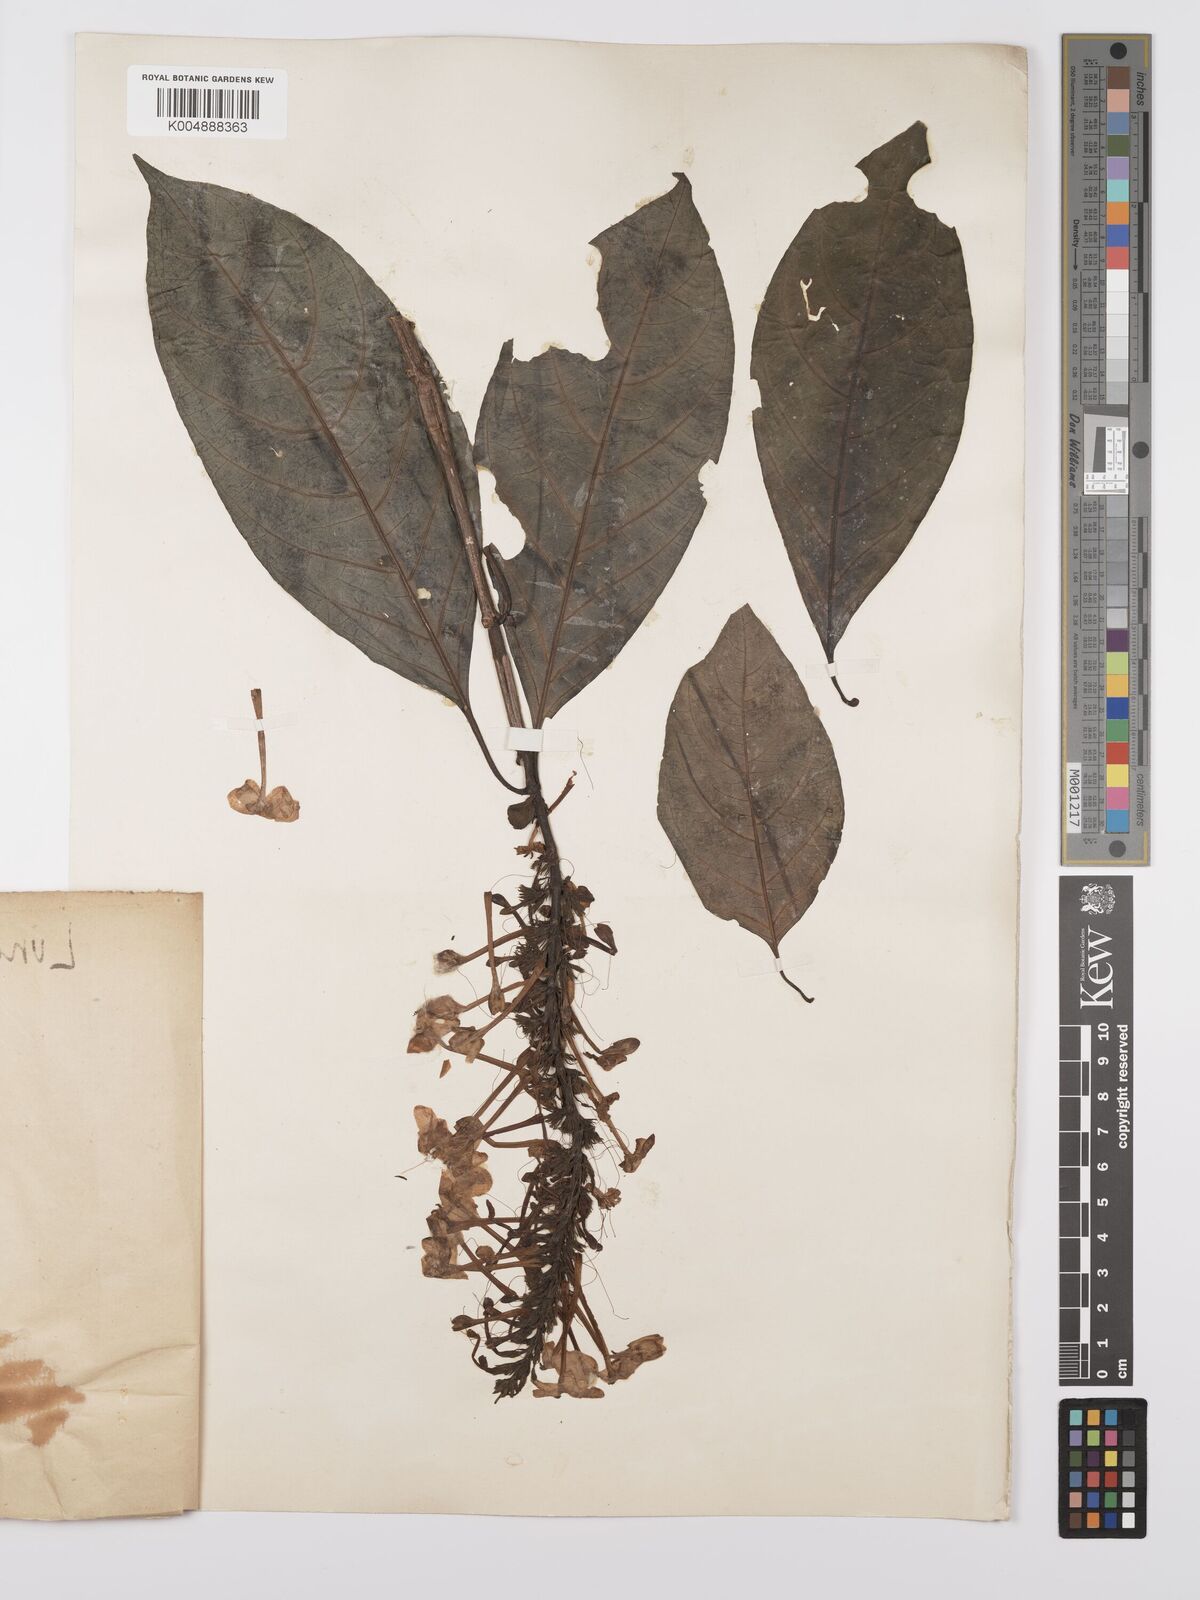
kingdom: Plantae
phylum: Tracheophyta
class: Magnoliopsida
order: Lamiales
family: Acanthaceae
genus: Pseuderanthemum
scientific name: Pseuderanthemum polyanthum
